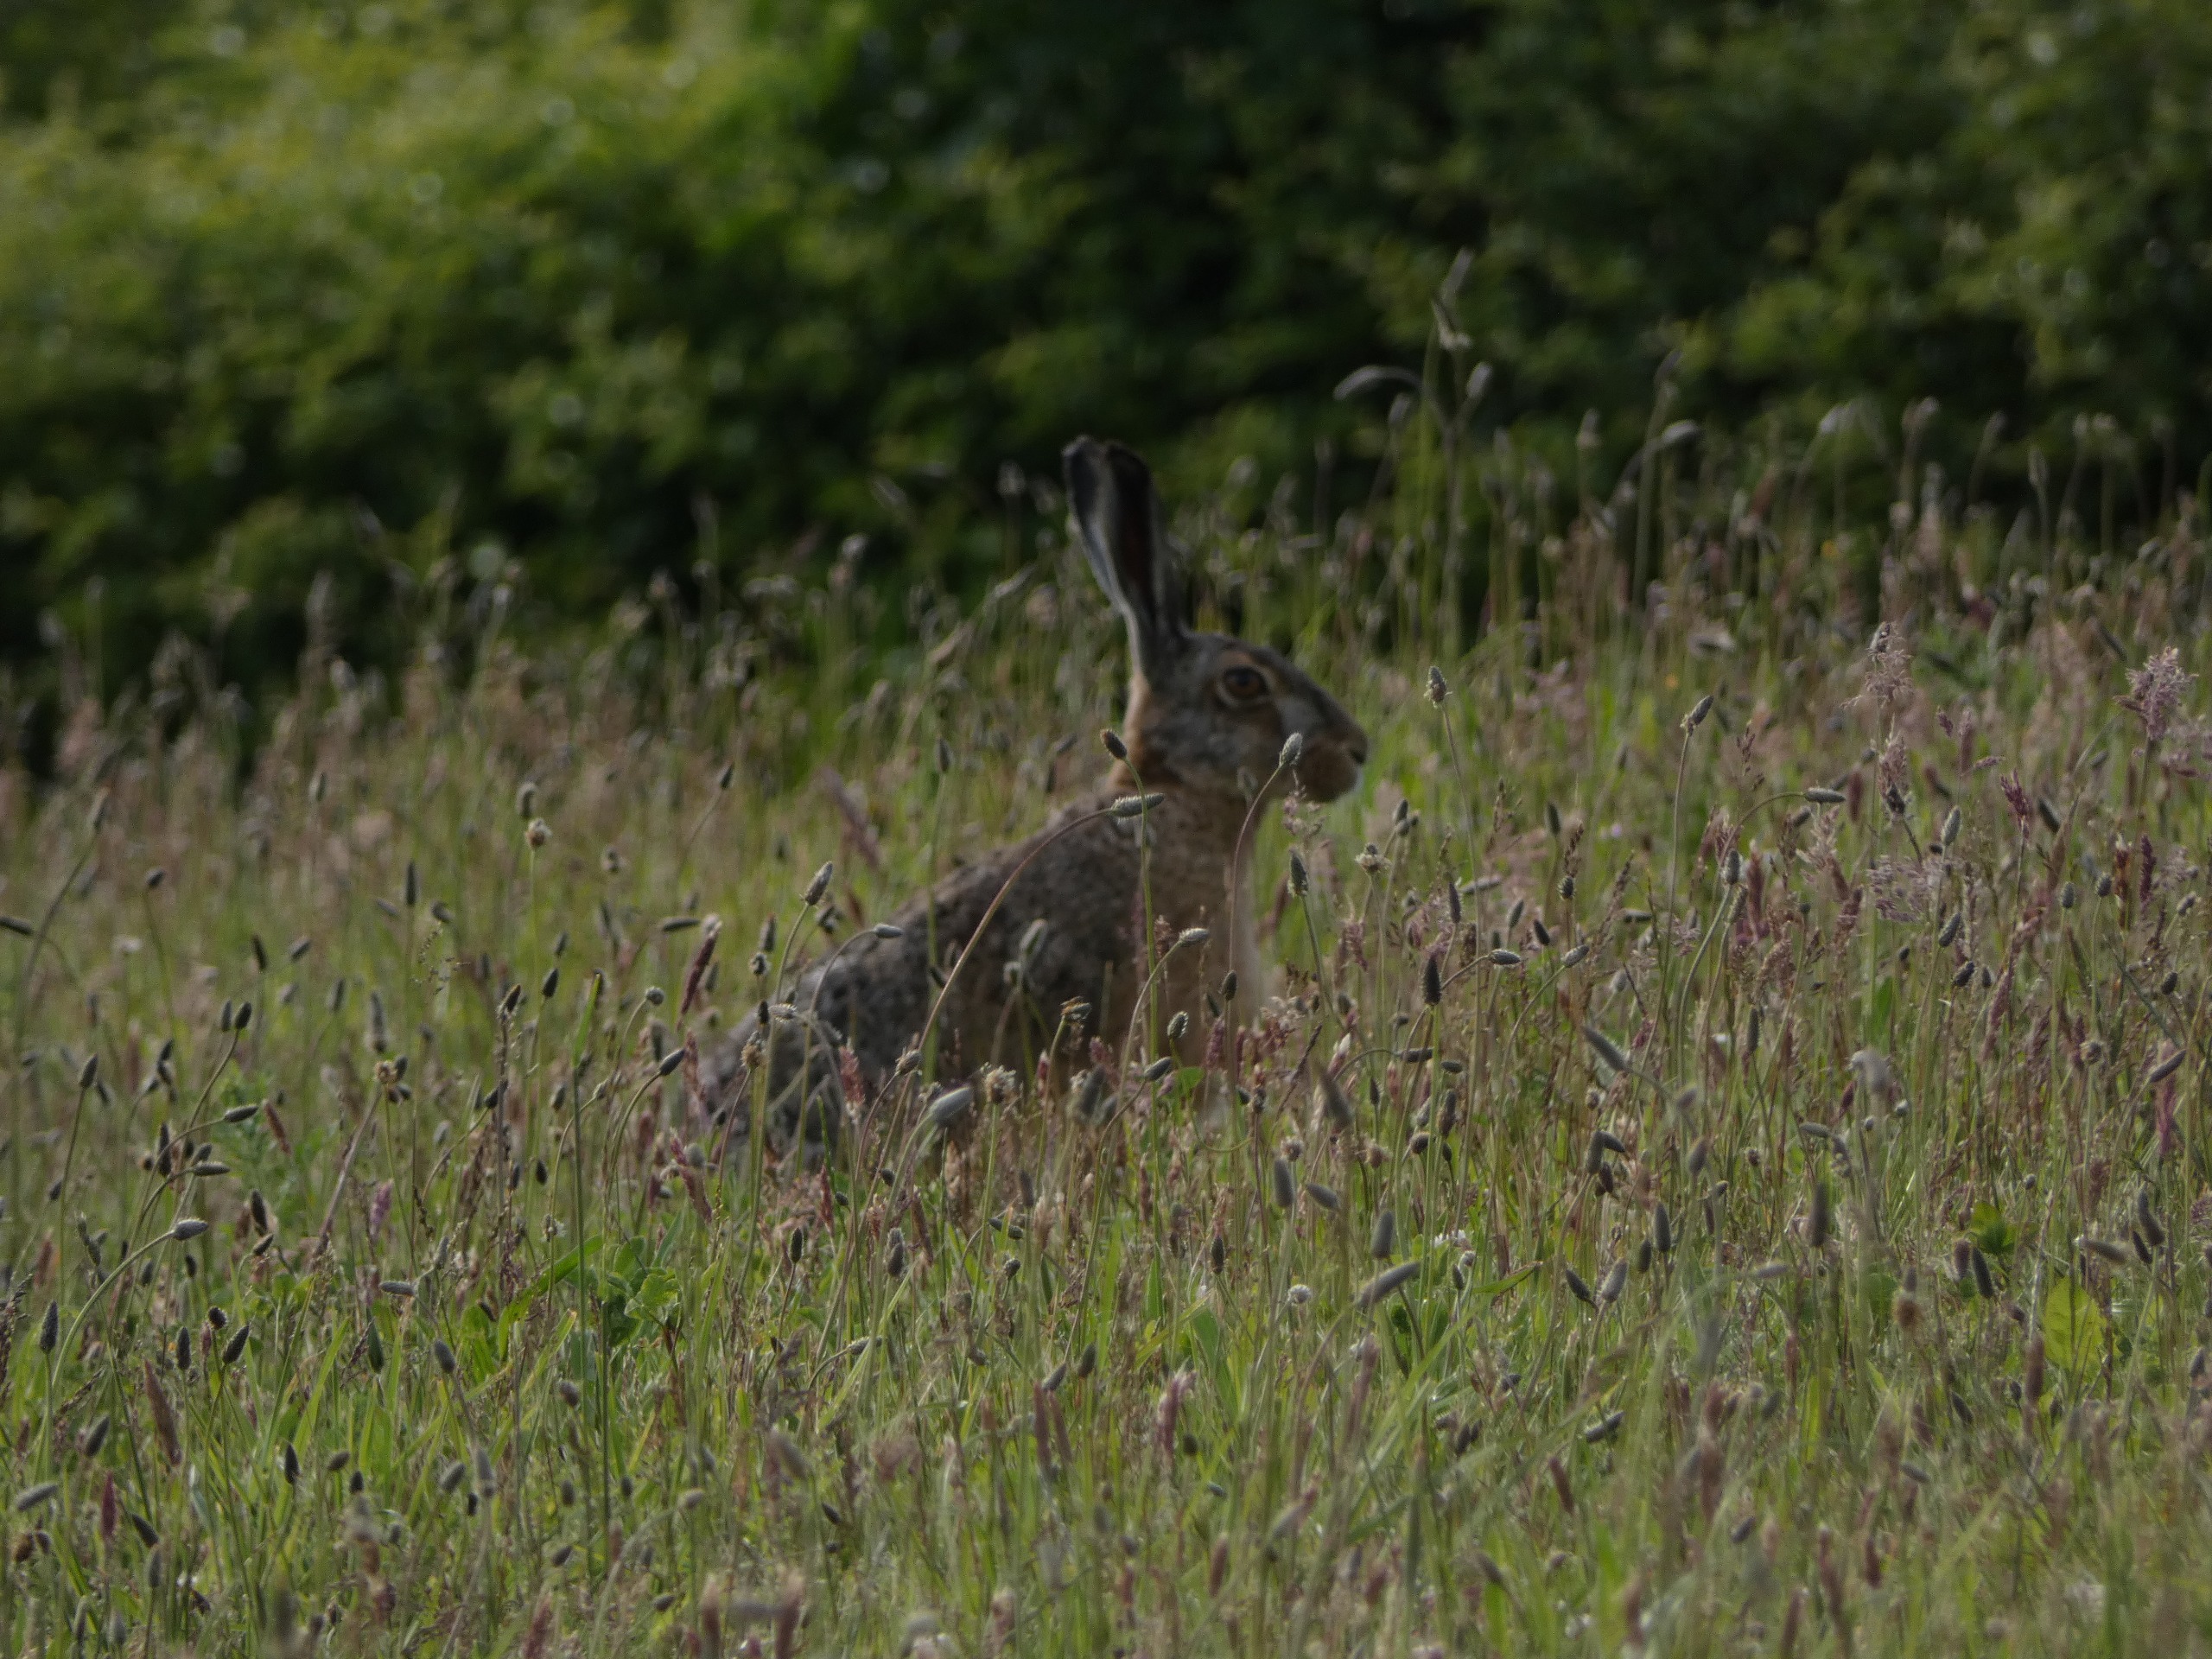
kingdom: Animalia
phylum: Chordata
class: Mammalia
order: Lagomorpha
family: Leporidae
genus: Lepus
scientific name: Lepus europaeus
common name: Hare
